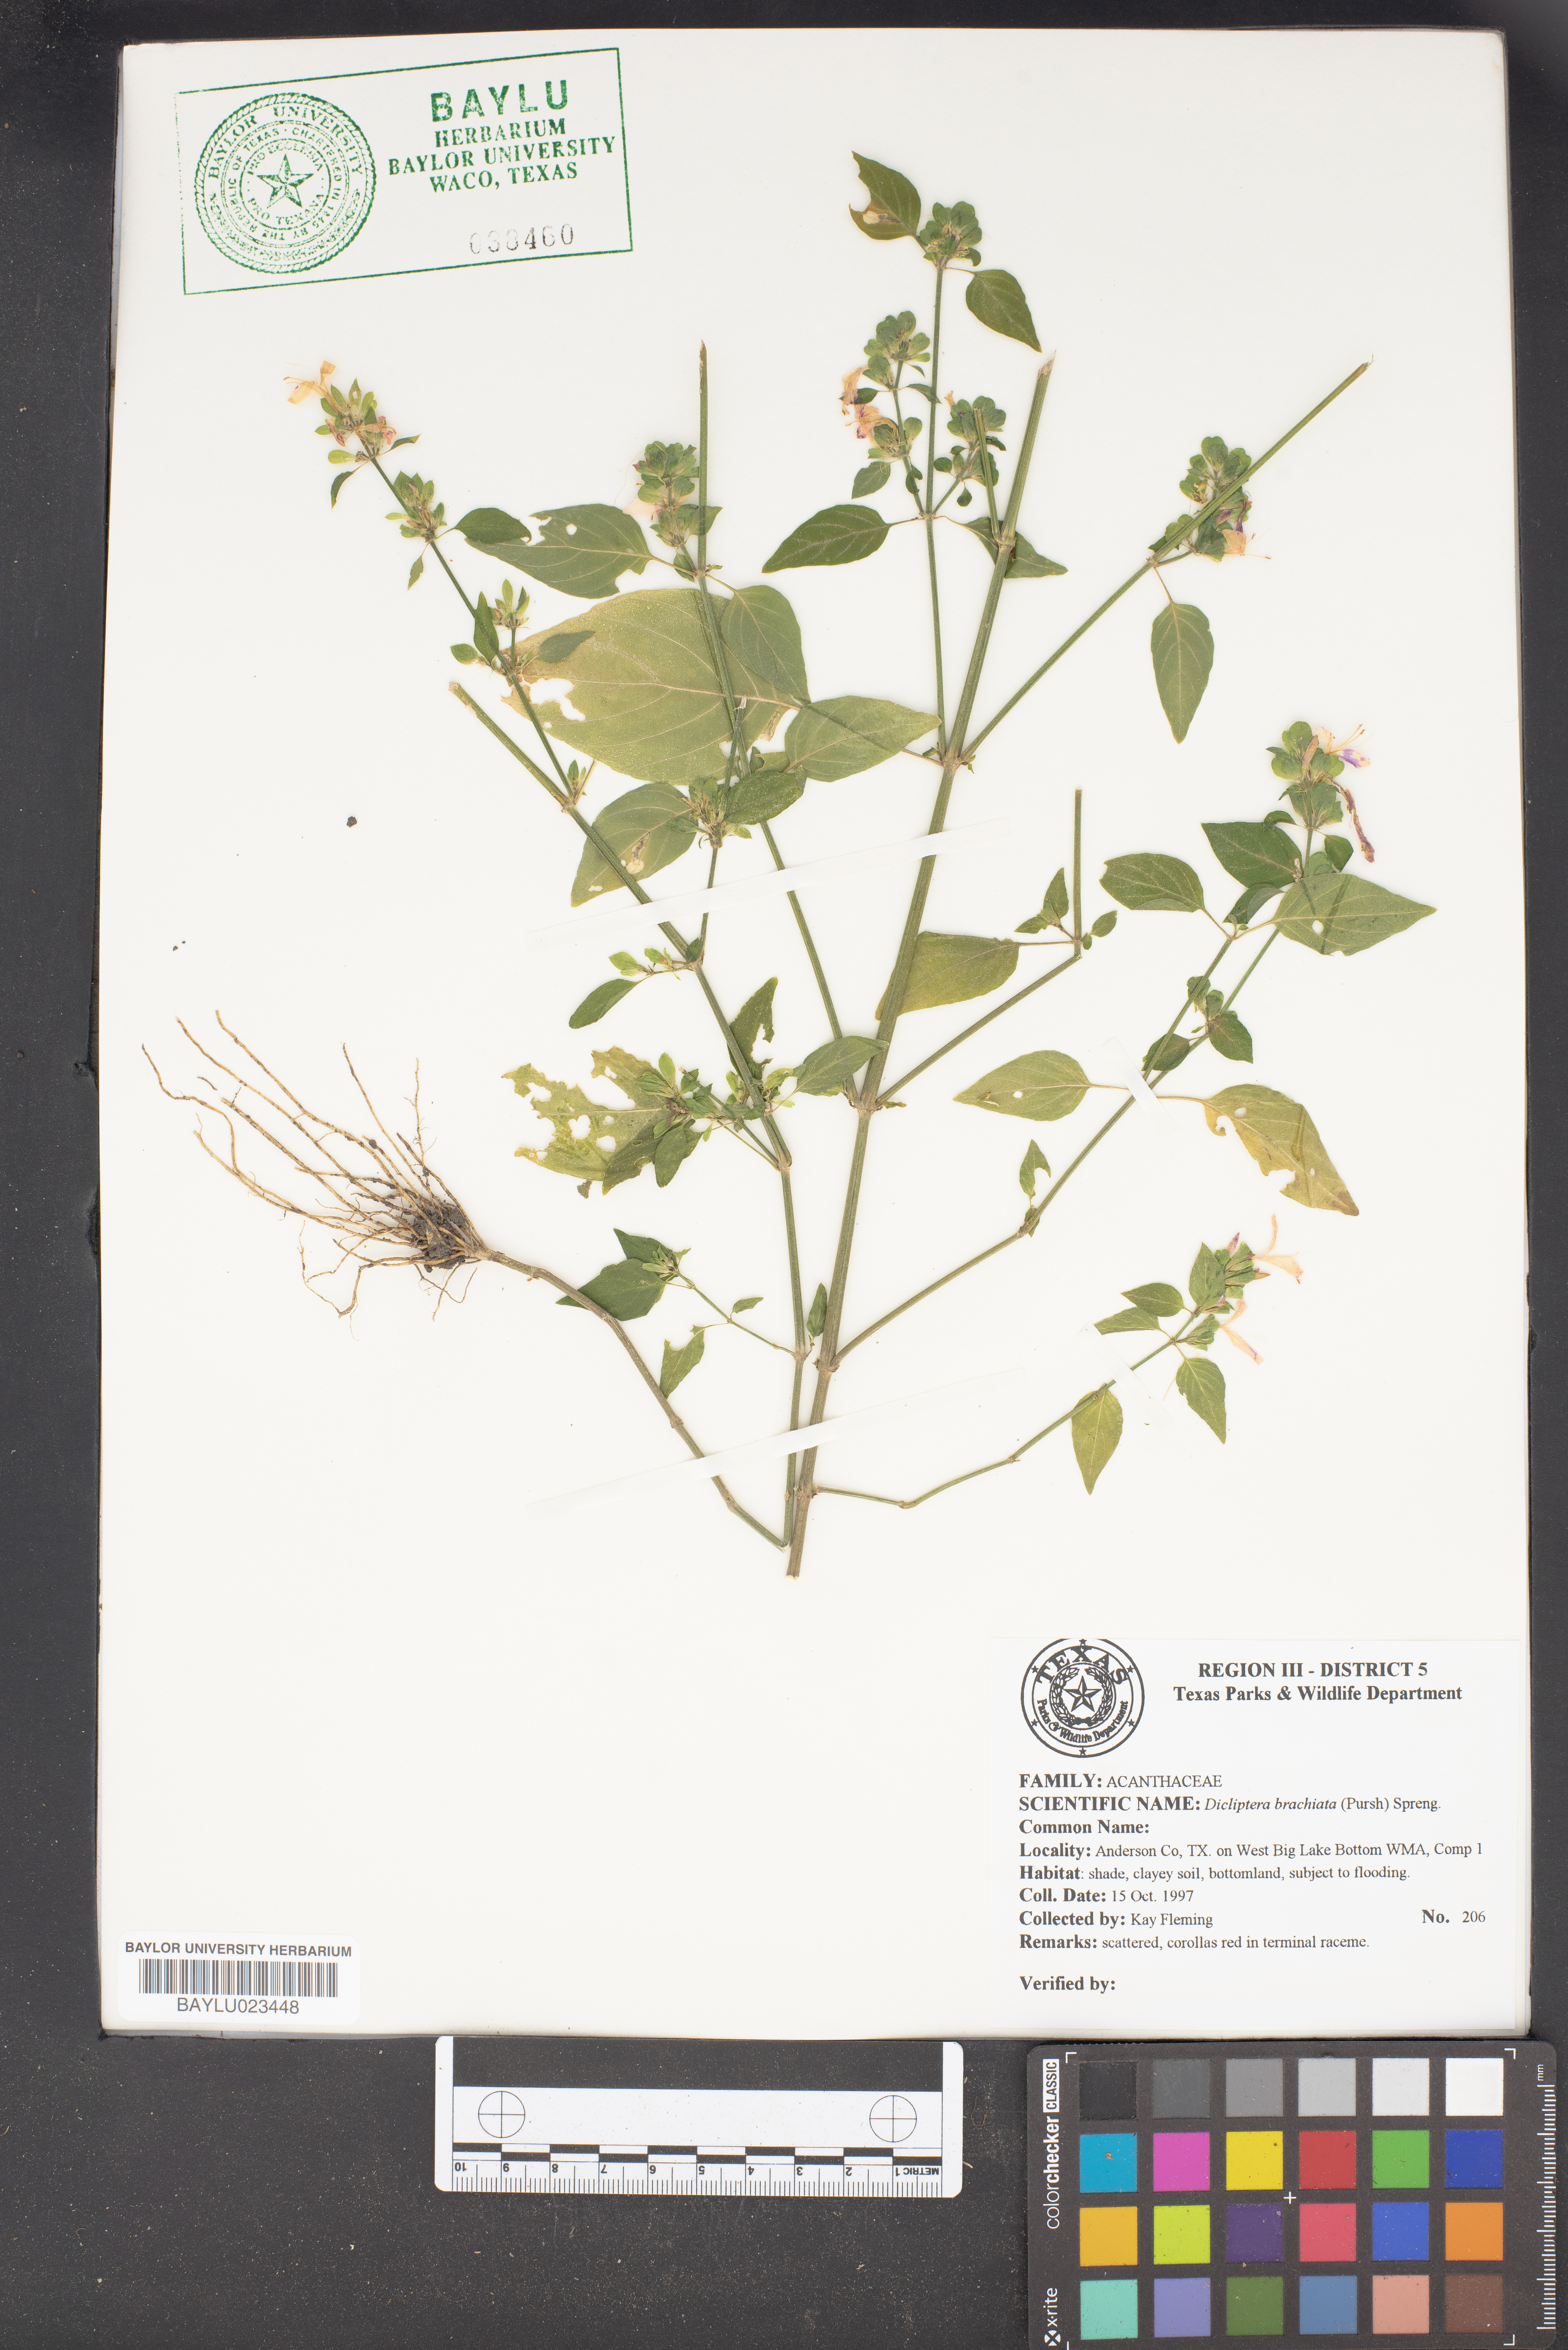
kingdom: Plantae
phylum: Tracheophyta
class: Magnoliopsida
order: Lamiales
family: Acanthaceae
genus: Dicliptera
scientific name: Dicliptera brachiata
